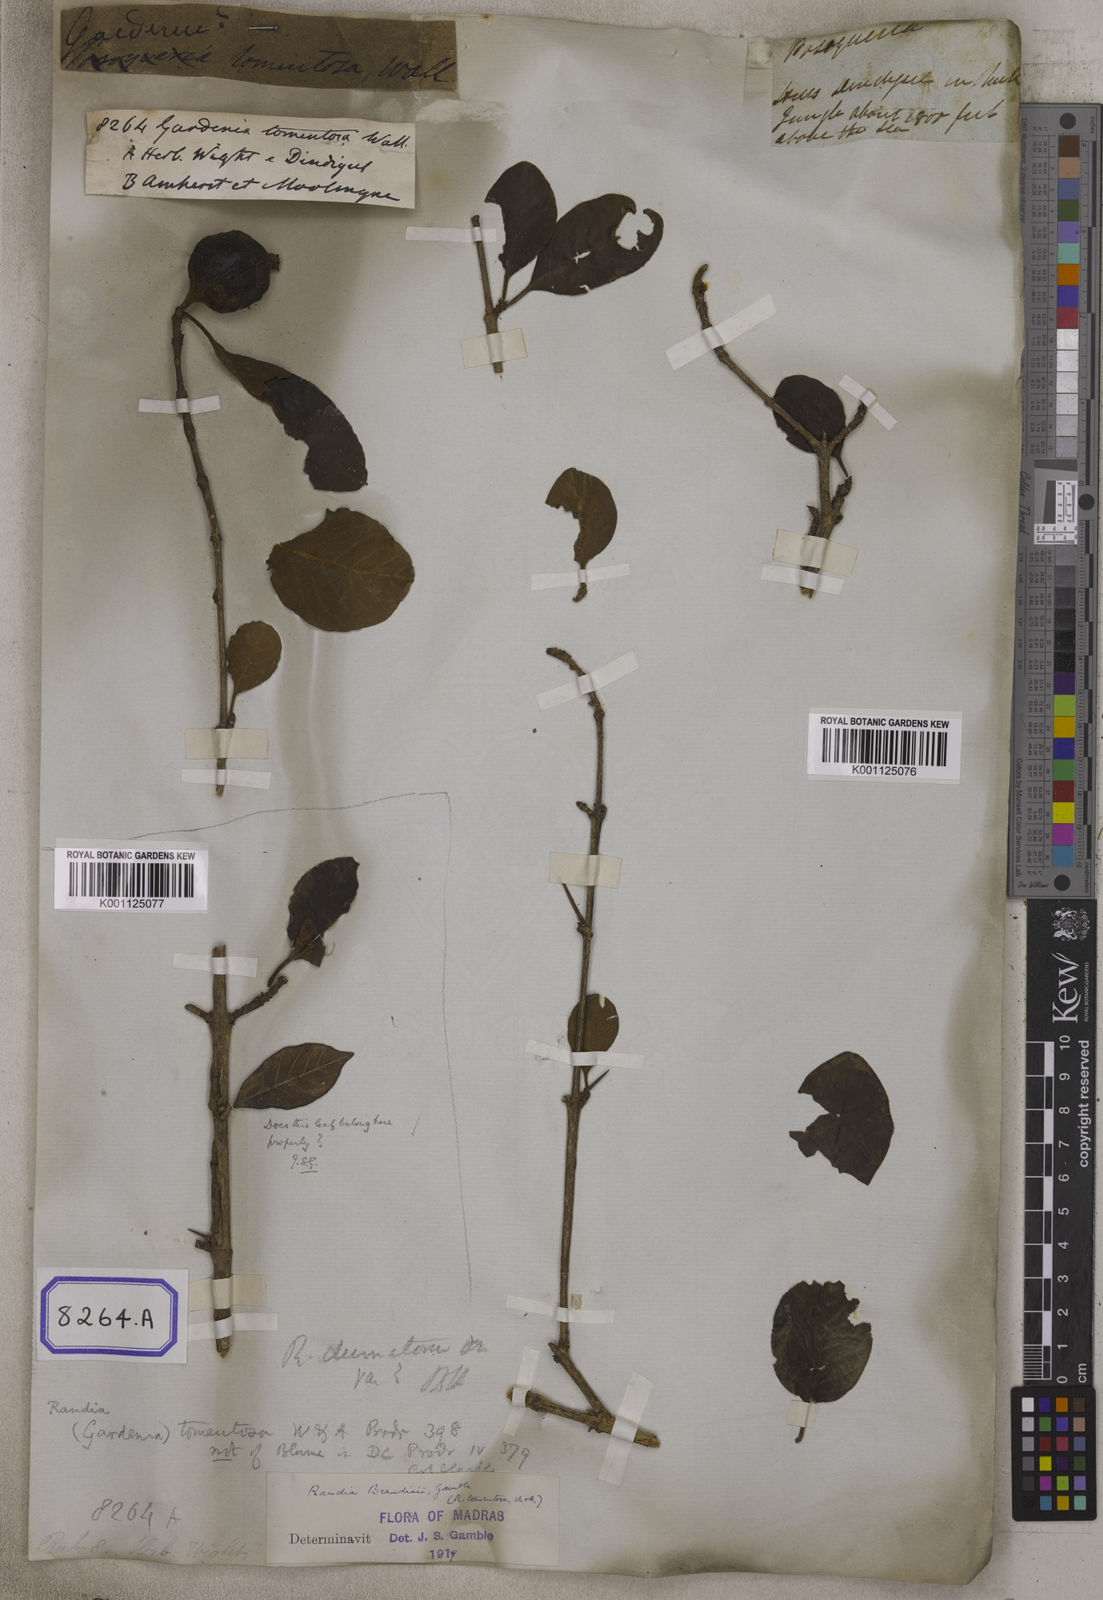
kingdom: Plantae
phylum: Tracheophyta
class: Magnoliopsida
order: Gentianales
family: Rubiaceae
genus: Gardenia
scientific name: Gardenia
